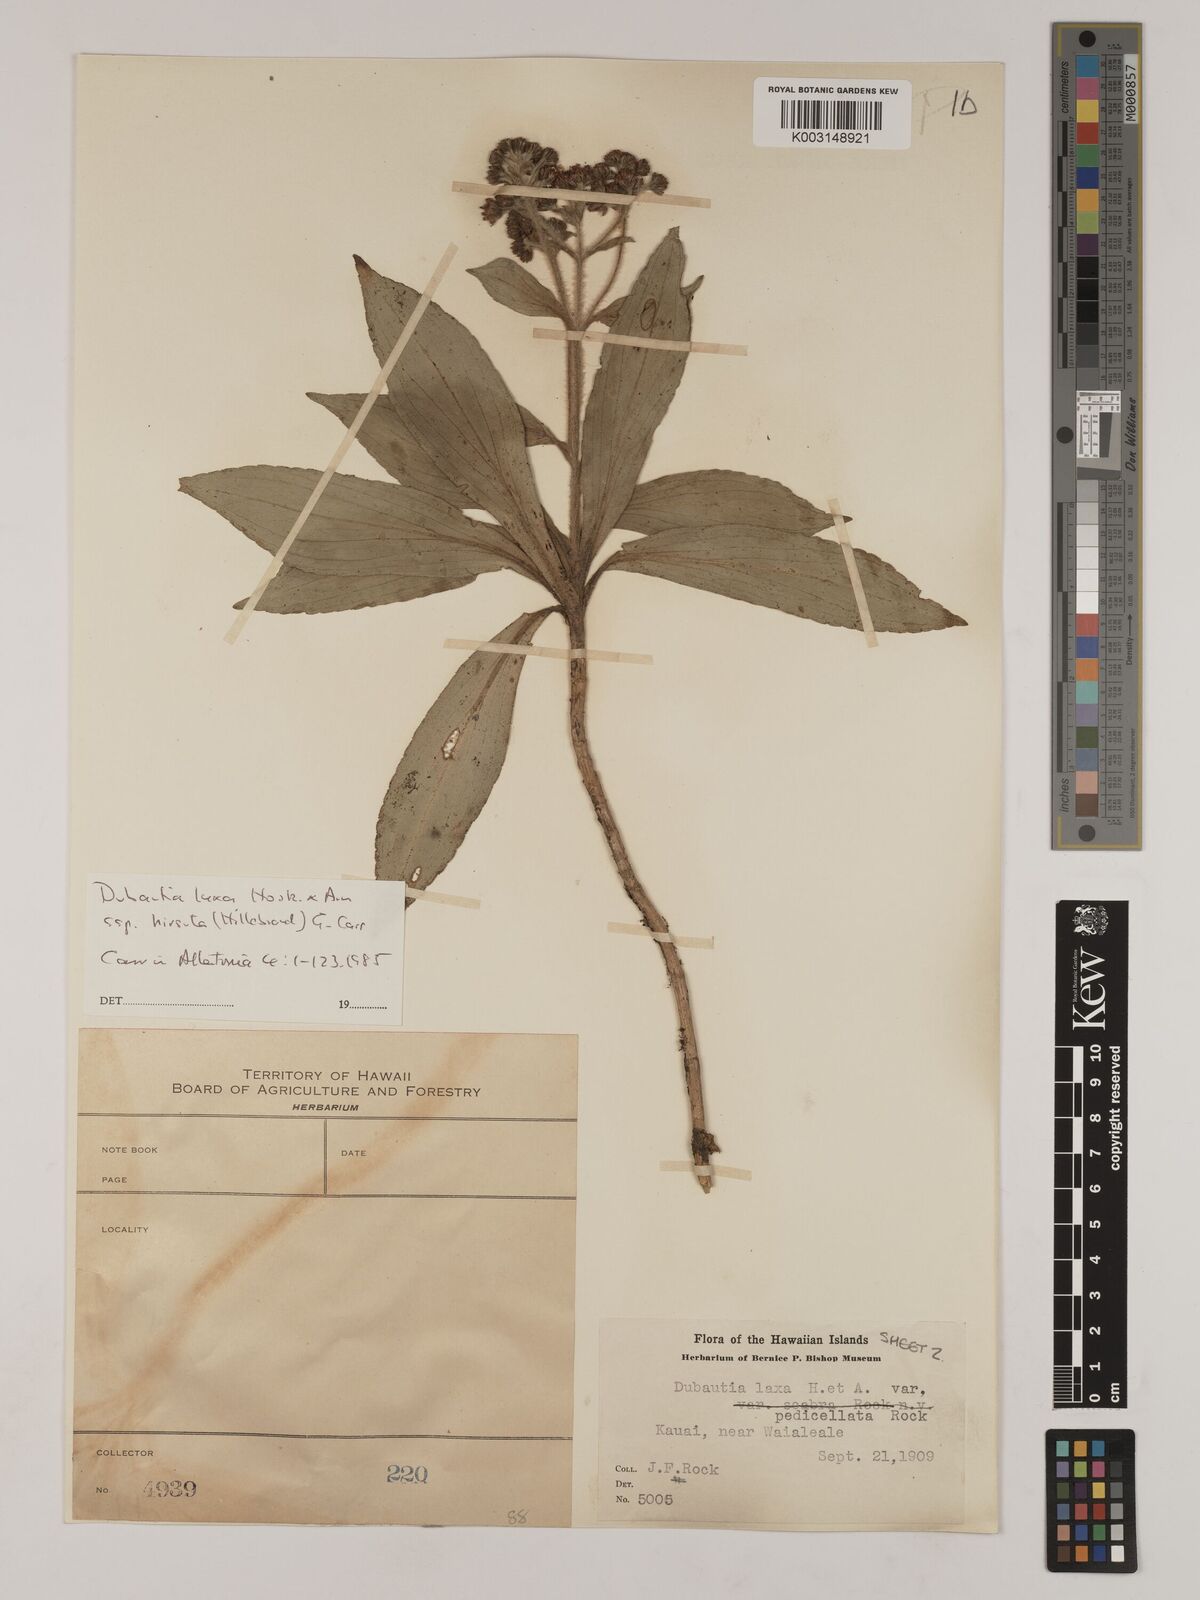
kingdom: Plantae
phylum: Tracheophyta
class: Magnoliopsida
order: Asterales
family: Asteraceae
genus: Dubautia
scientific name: Dubautia laxa
